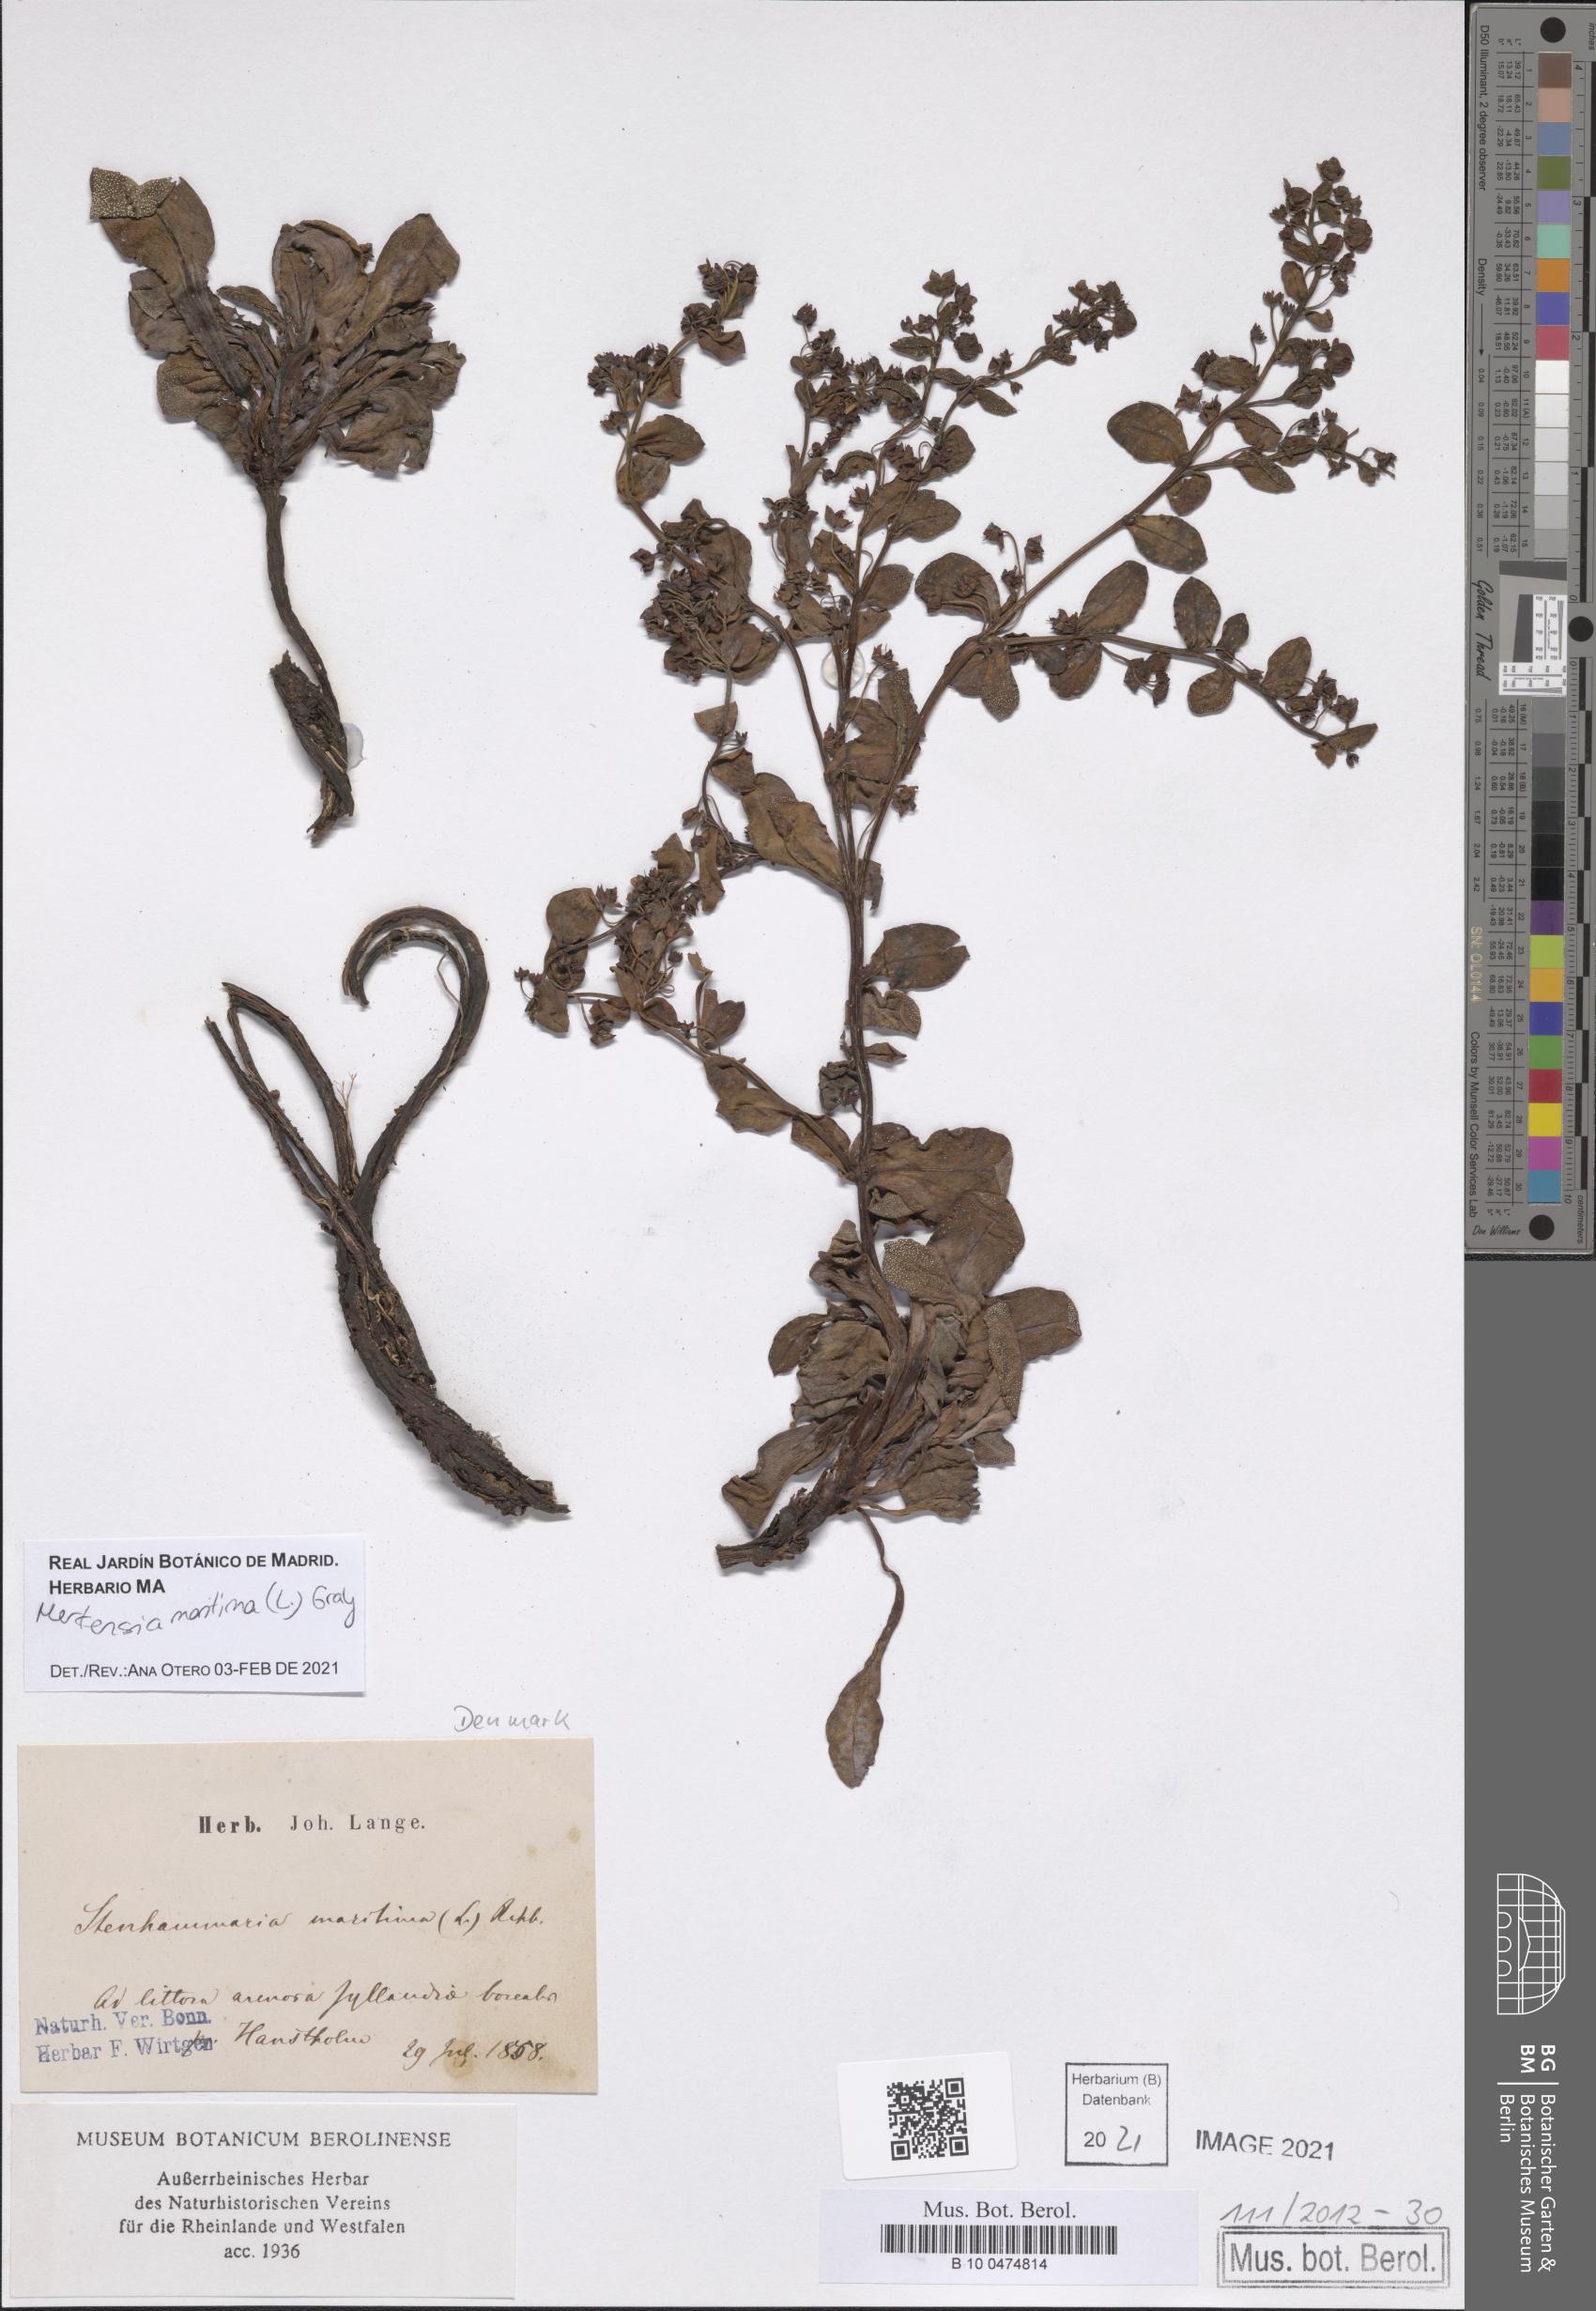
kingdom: Plantae
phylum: Tracheophyta
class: Magnoliopsida
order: Boraginales
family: Boraginaceae
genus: Mertensia
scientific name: Mertensia maritima
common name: Oysterplant
